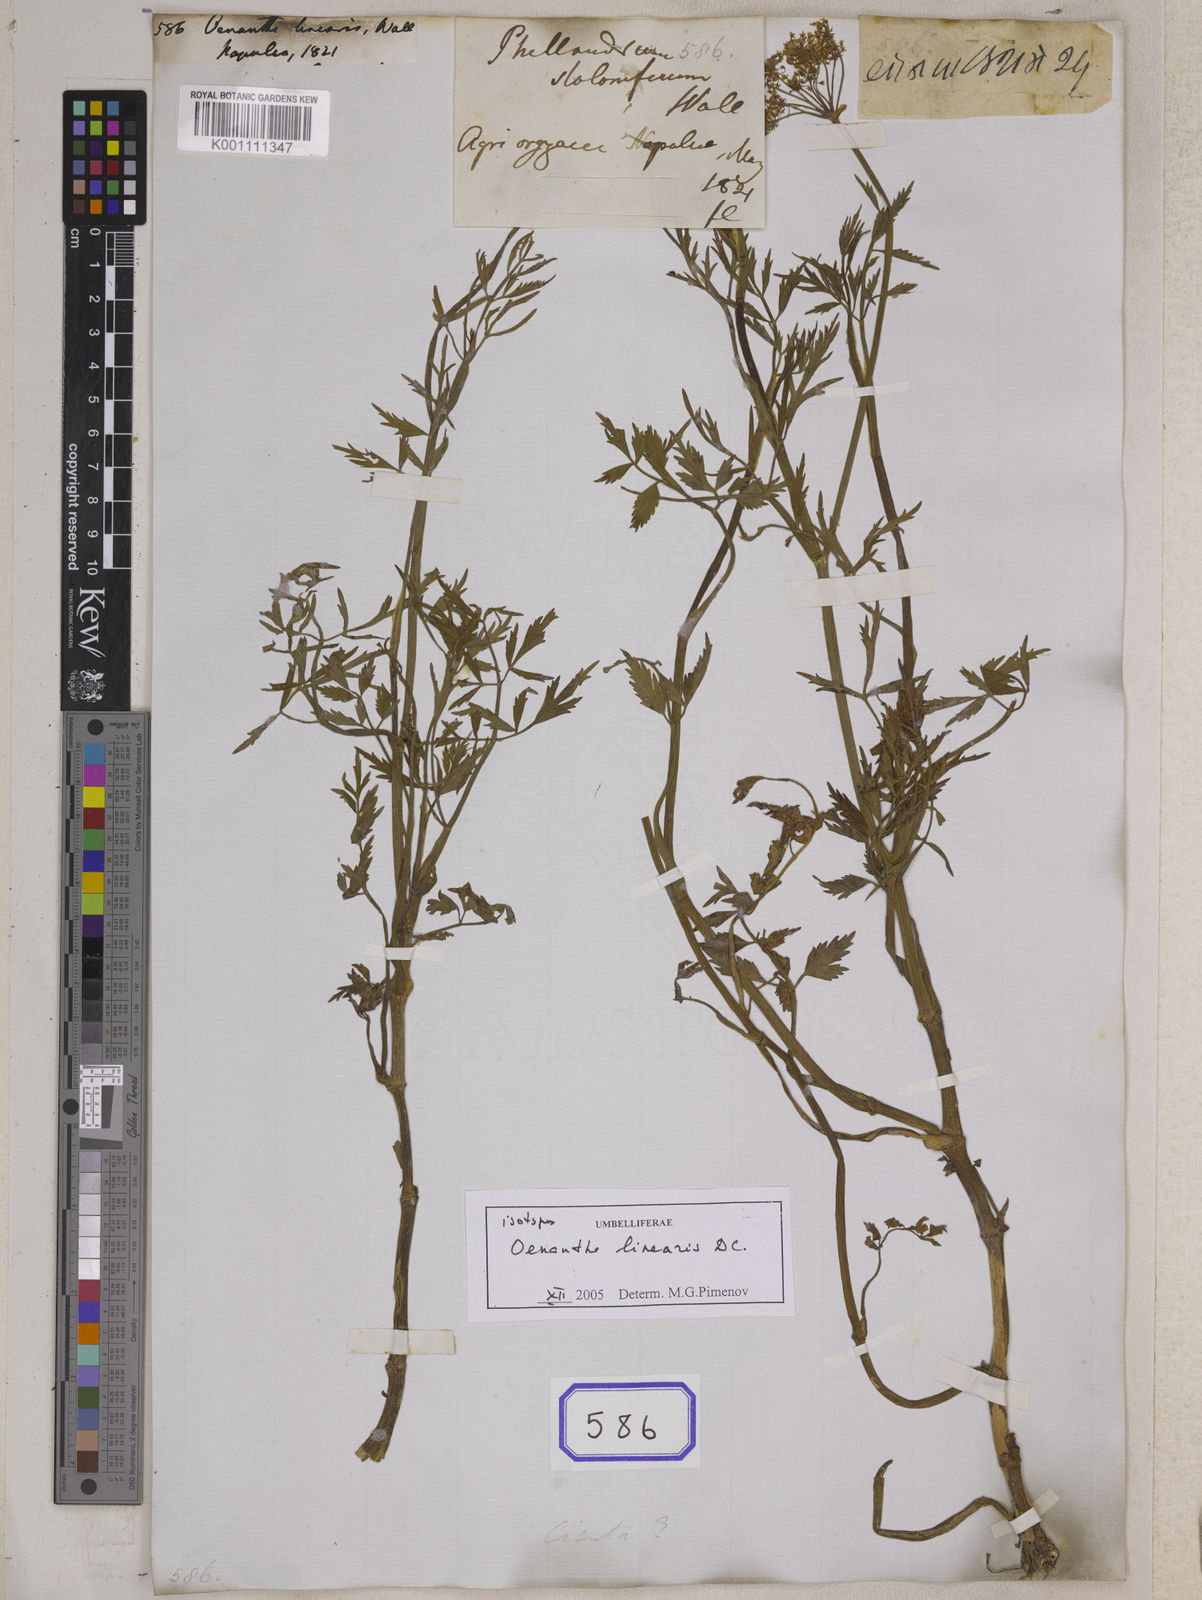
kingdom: Plantae
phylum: Tracheophyta
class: Magnoliopsida
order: Apiales
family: Apiaceae
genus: Oenanthe
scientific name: Oenanthe
